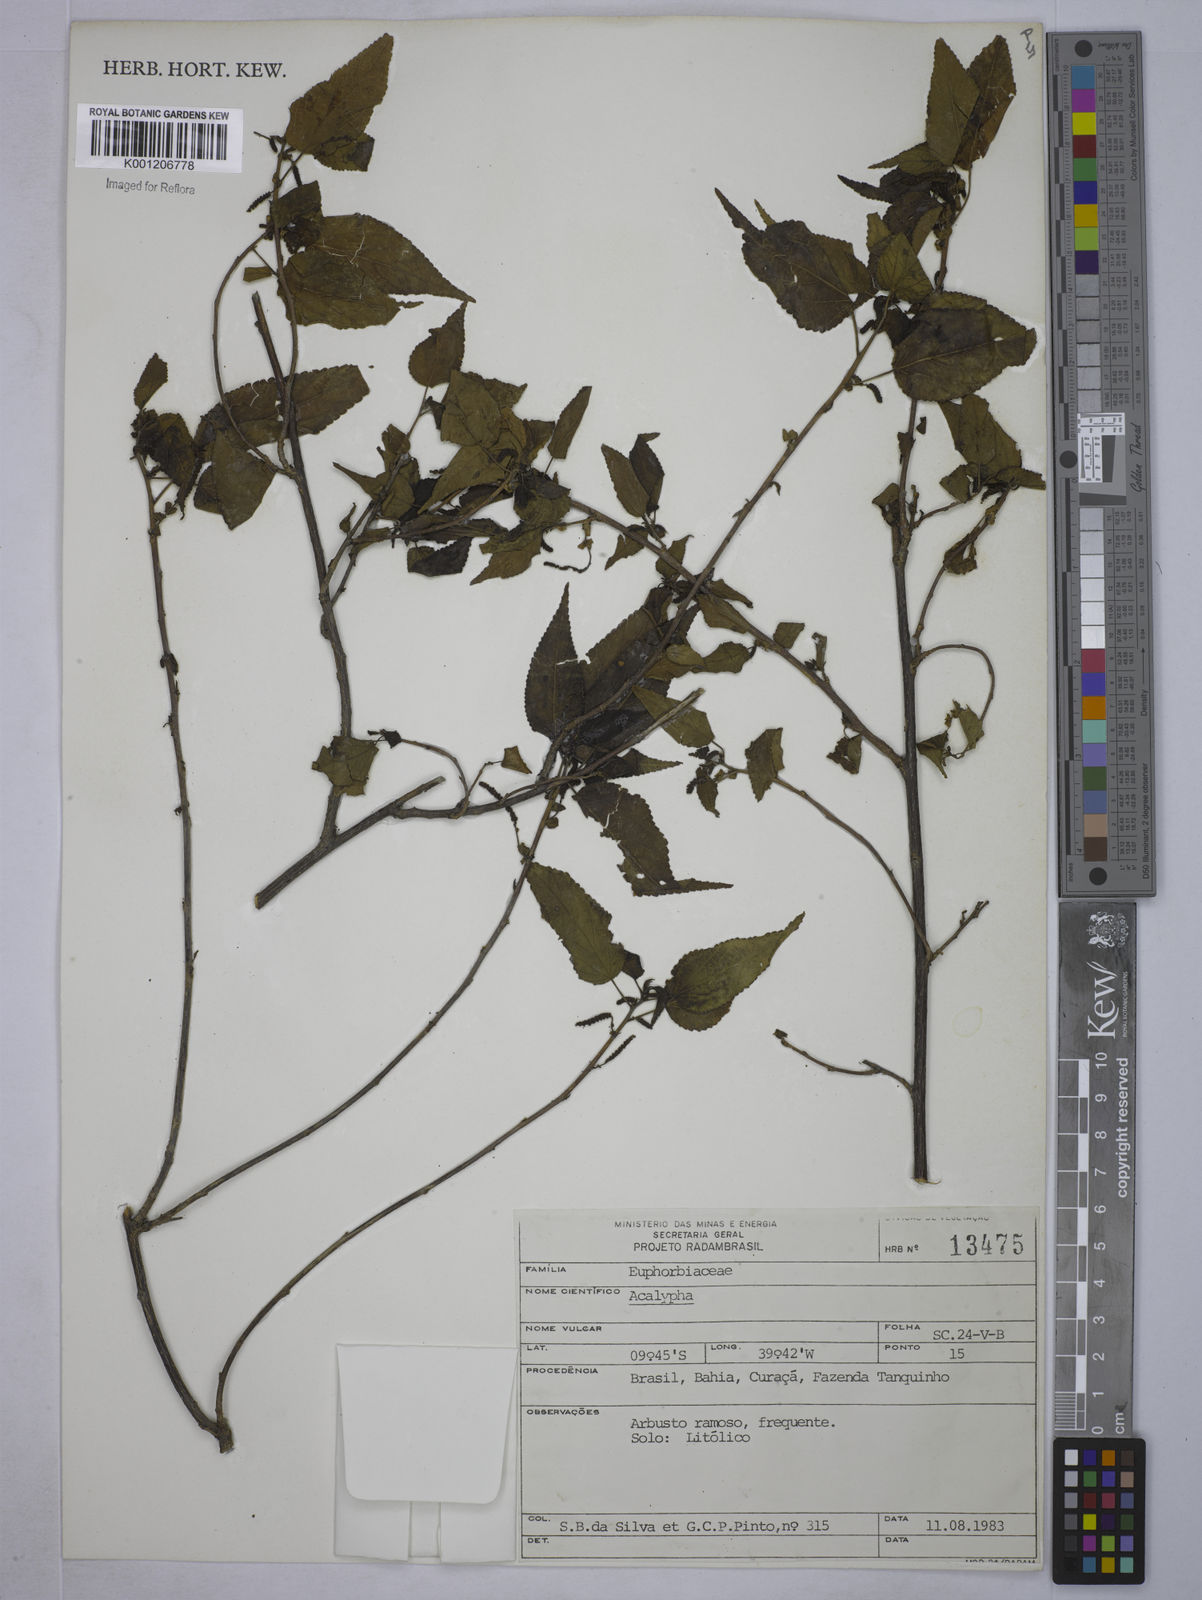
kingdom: Plantae
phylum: Tracheophyta
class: Magnoliopsida
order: Malpighiales
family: Euphorbiaceae
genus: Acalypha
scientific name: Acalypha
